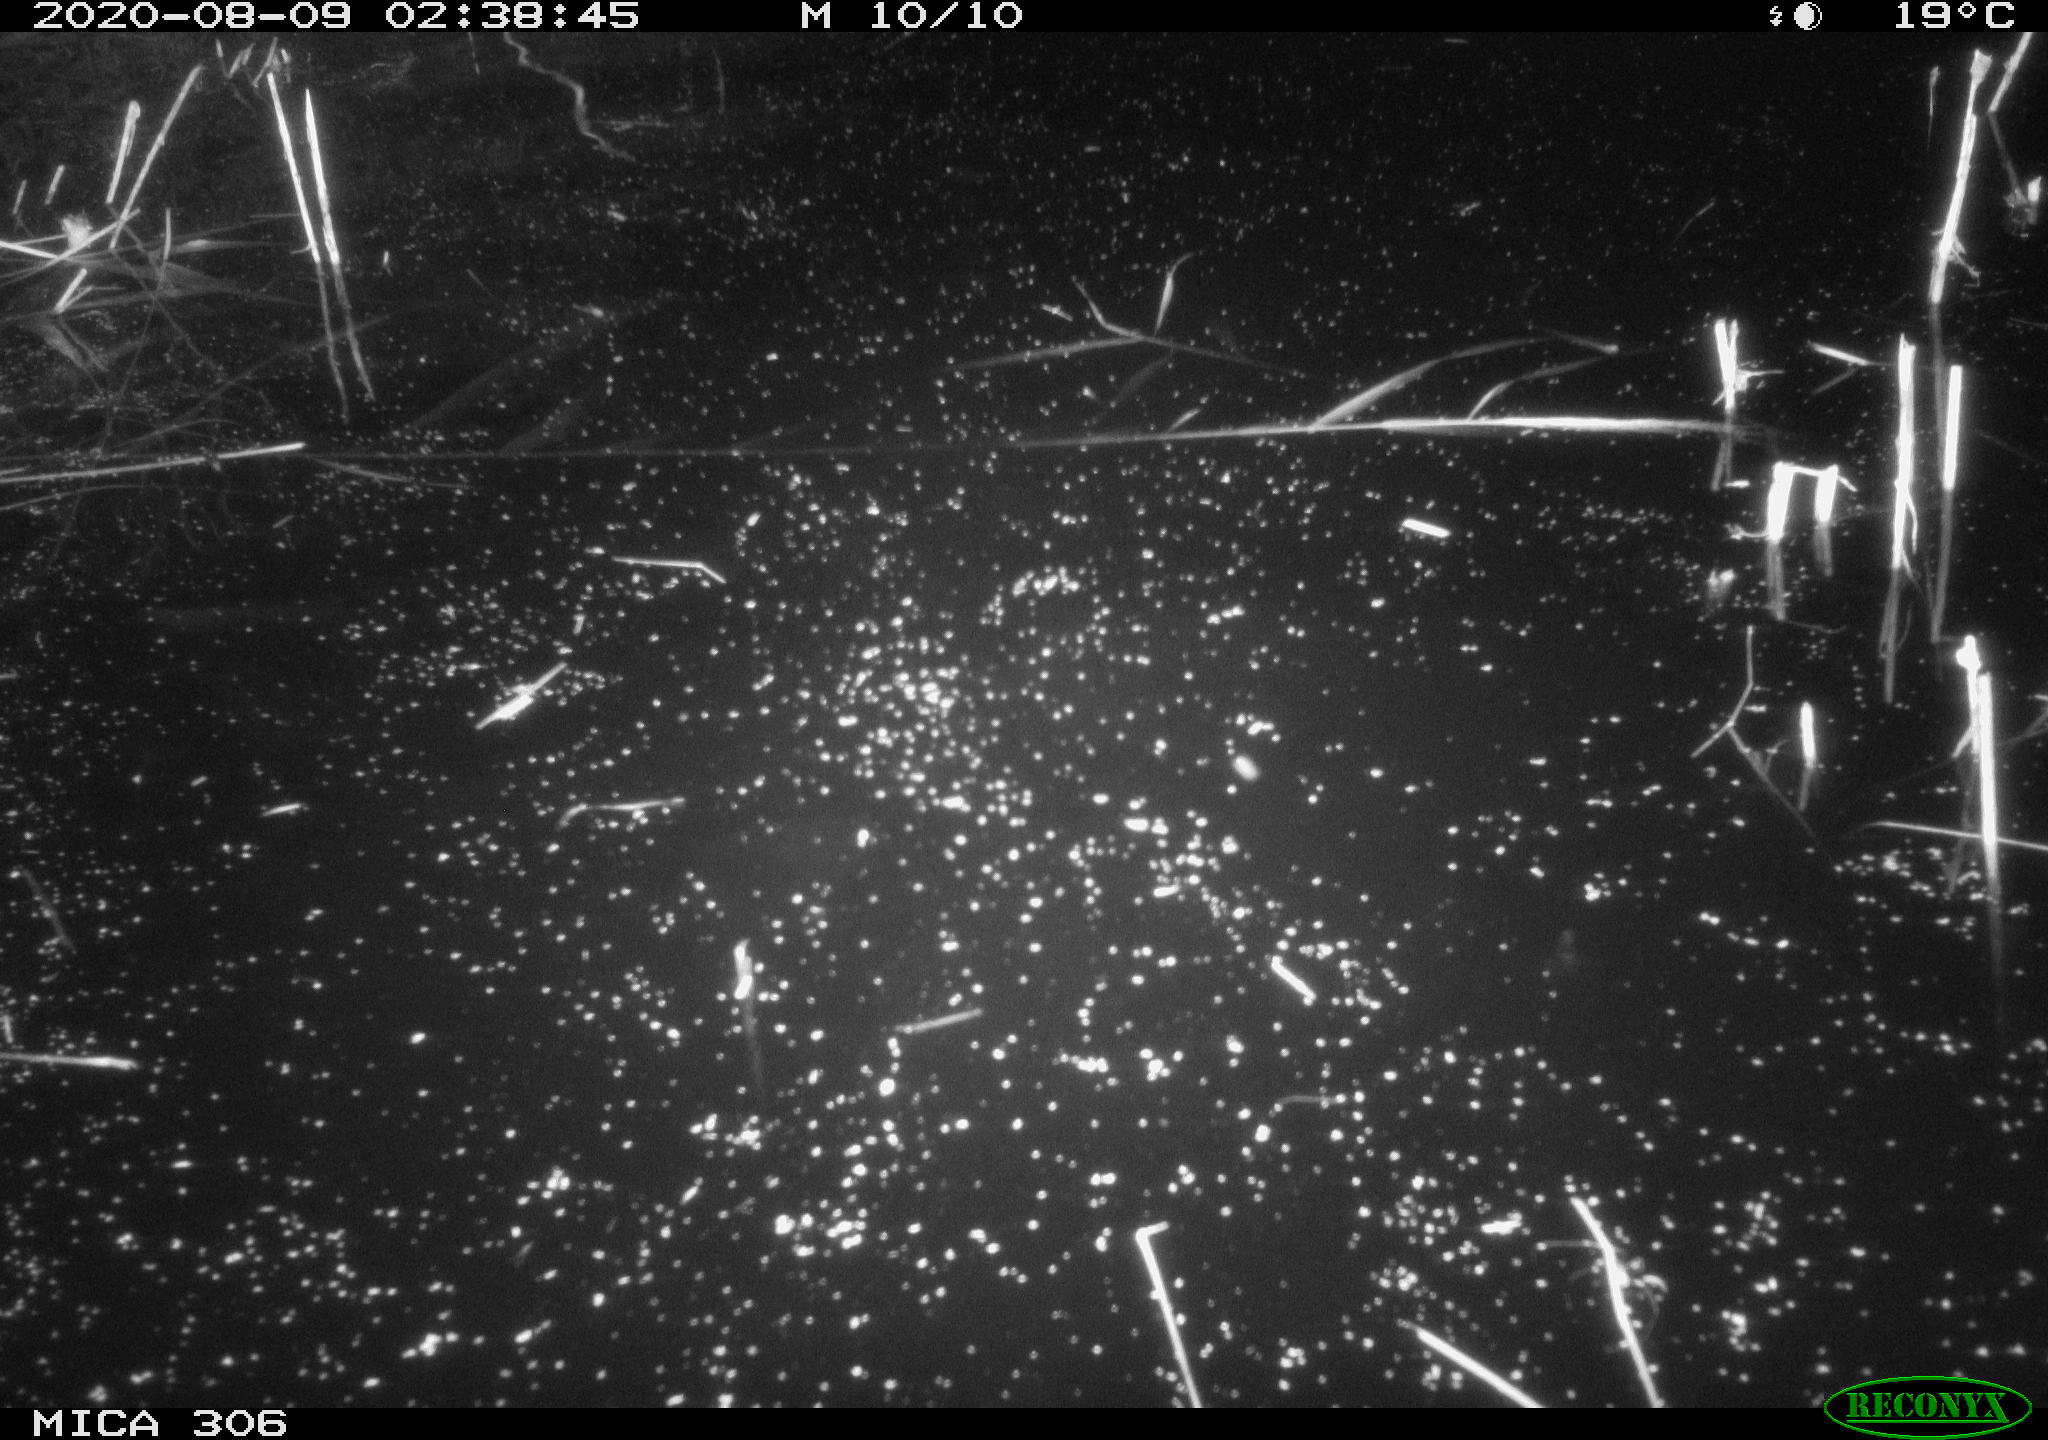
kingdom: Animalia
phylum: Chordata
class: Mammalia
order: Rodentia
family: Cricetidae
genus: Ondatra
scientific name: Ondatra zibethicus
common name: Muskrat
